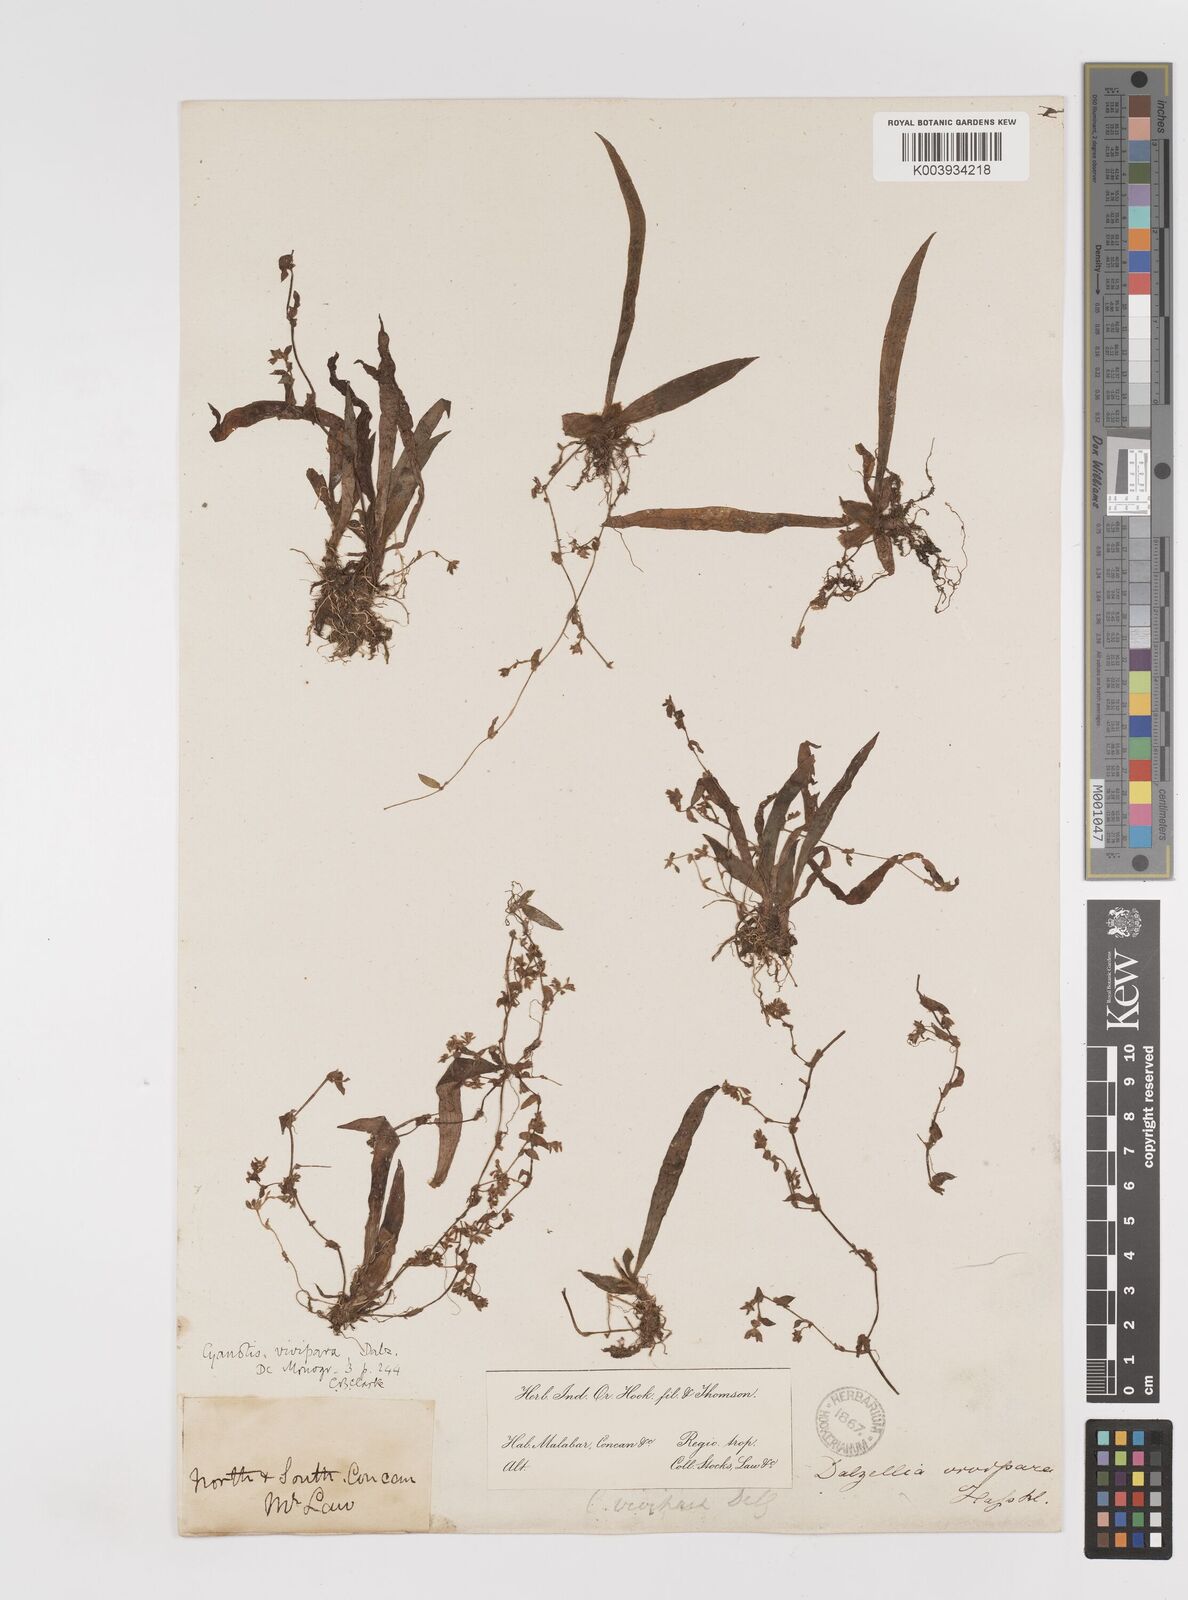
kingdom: Plantae
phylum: Tracheophyta
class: Liliopsida
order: Commelinales
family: Commelinaceae
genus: Cyanotis
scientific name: Cyanotis vivipara
